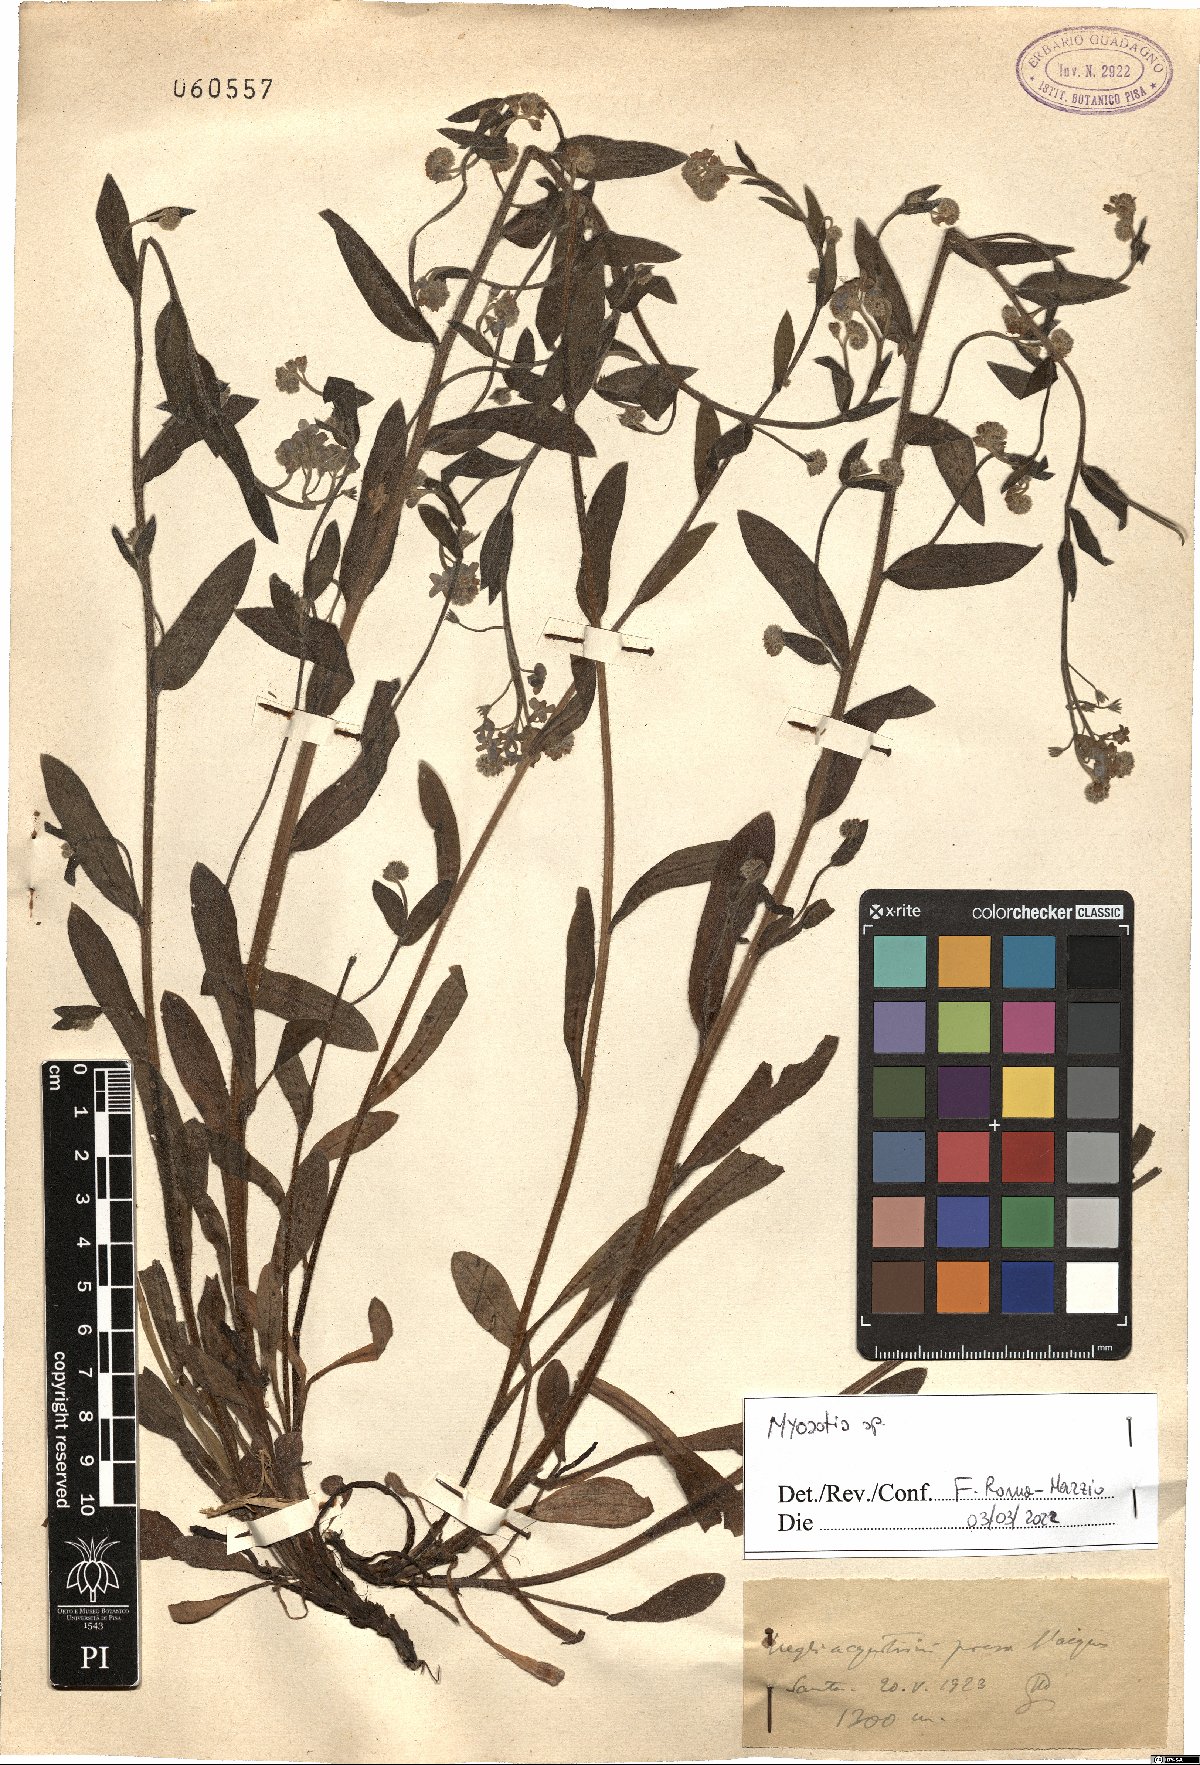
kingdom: Plantae
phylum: Tracheophyta
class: Magnoliopsida
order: Boraginales
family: Boraginaceae
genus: Myosotis
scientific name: Myosotis
